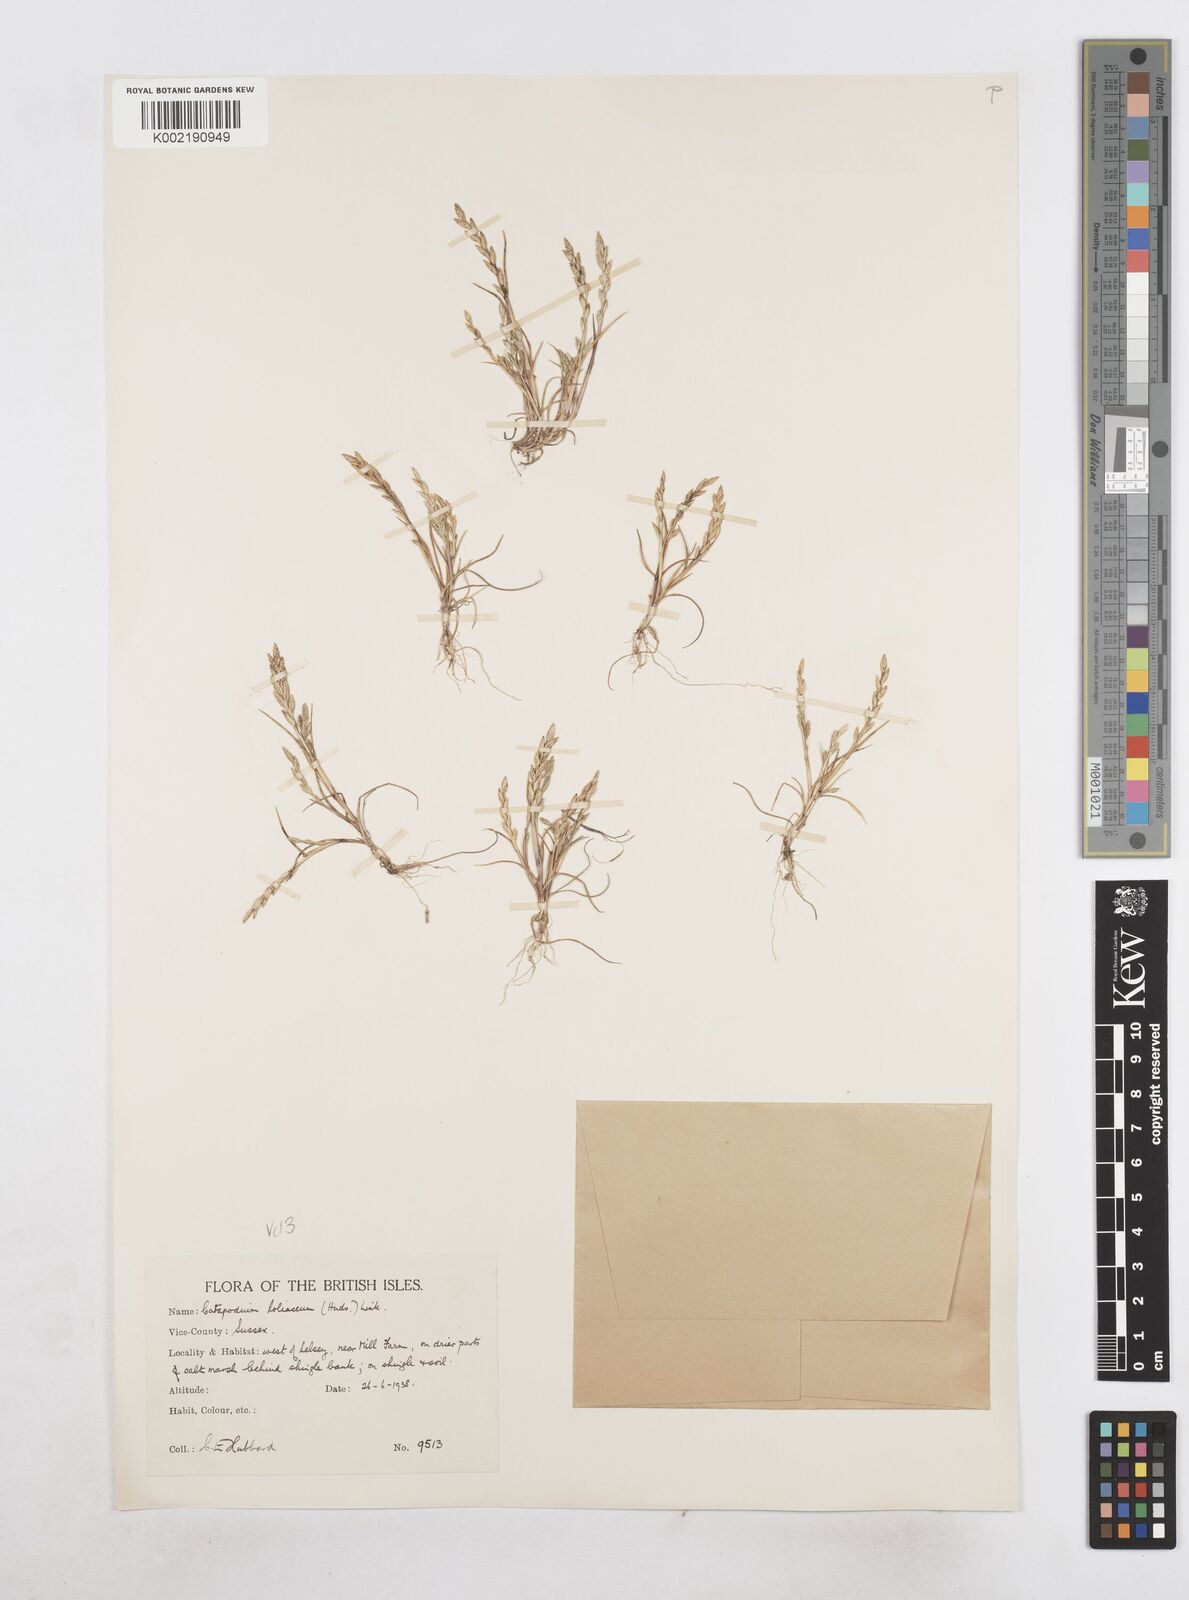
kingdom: Plantae
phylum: Tracheophyta
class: Liliopsida
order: Poales
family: Poaceae
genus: Catapodium
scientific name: Catapodium marinum
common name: Sea fern-grass
